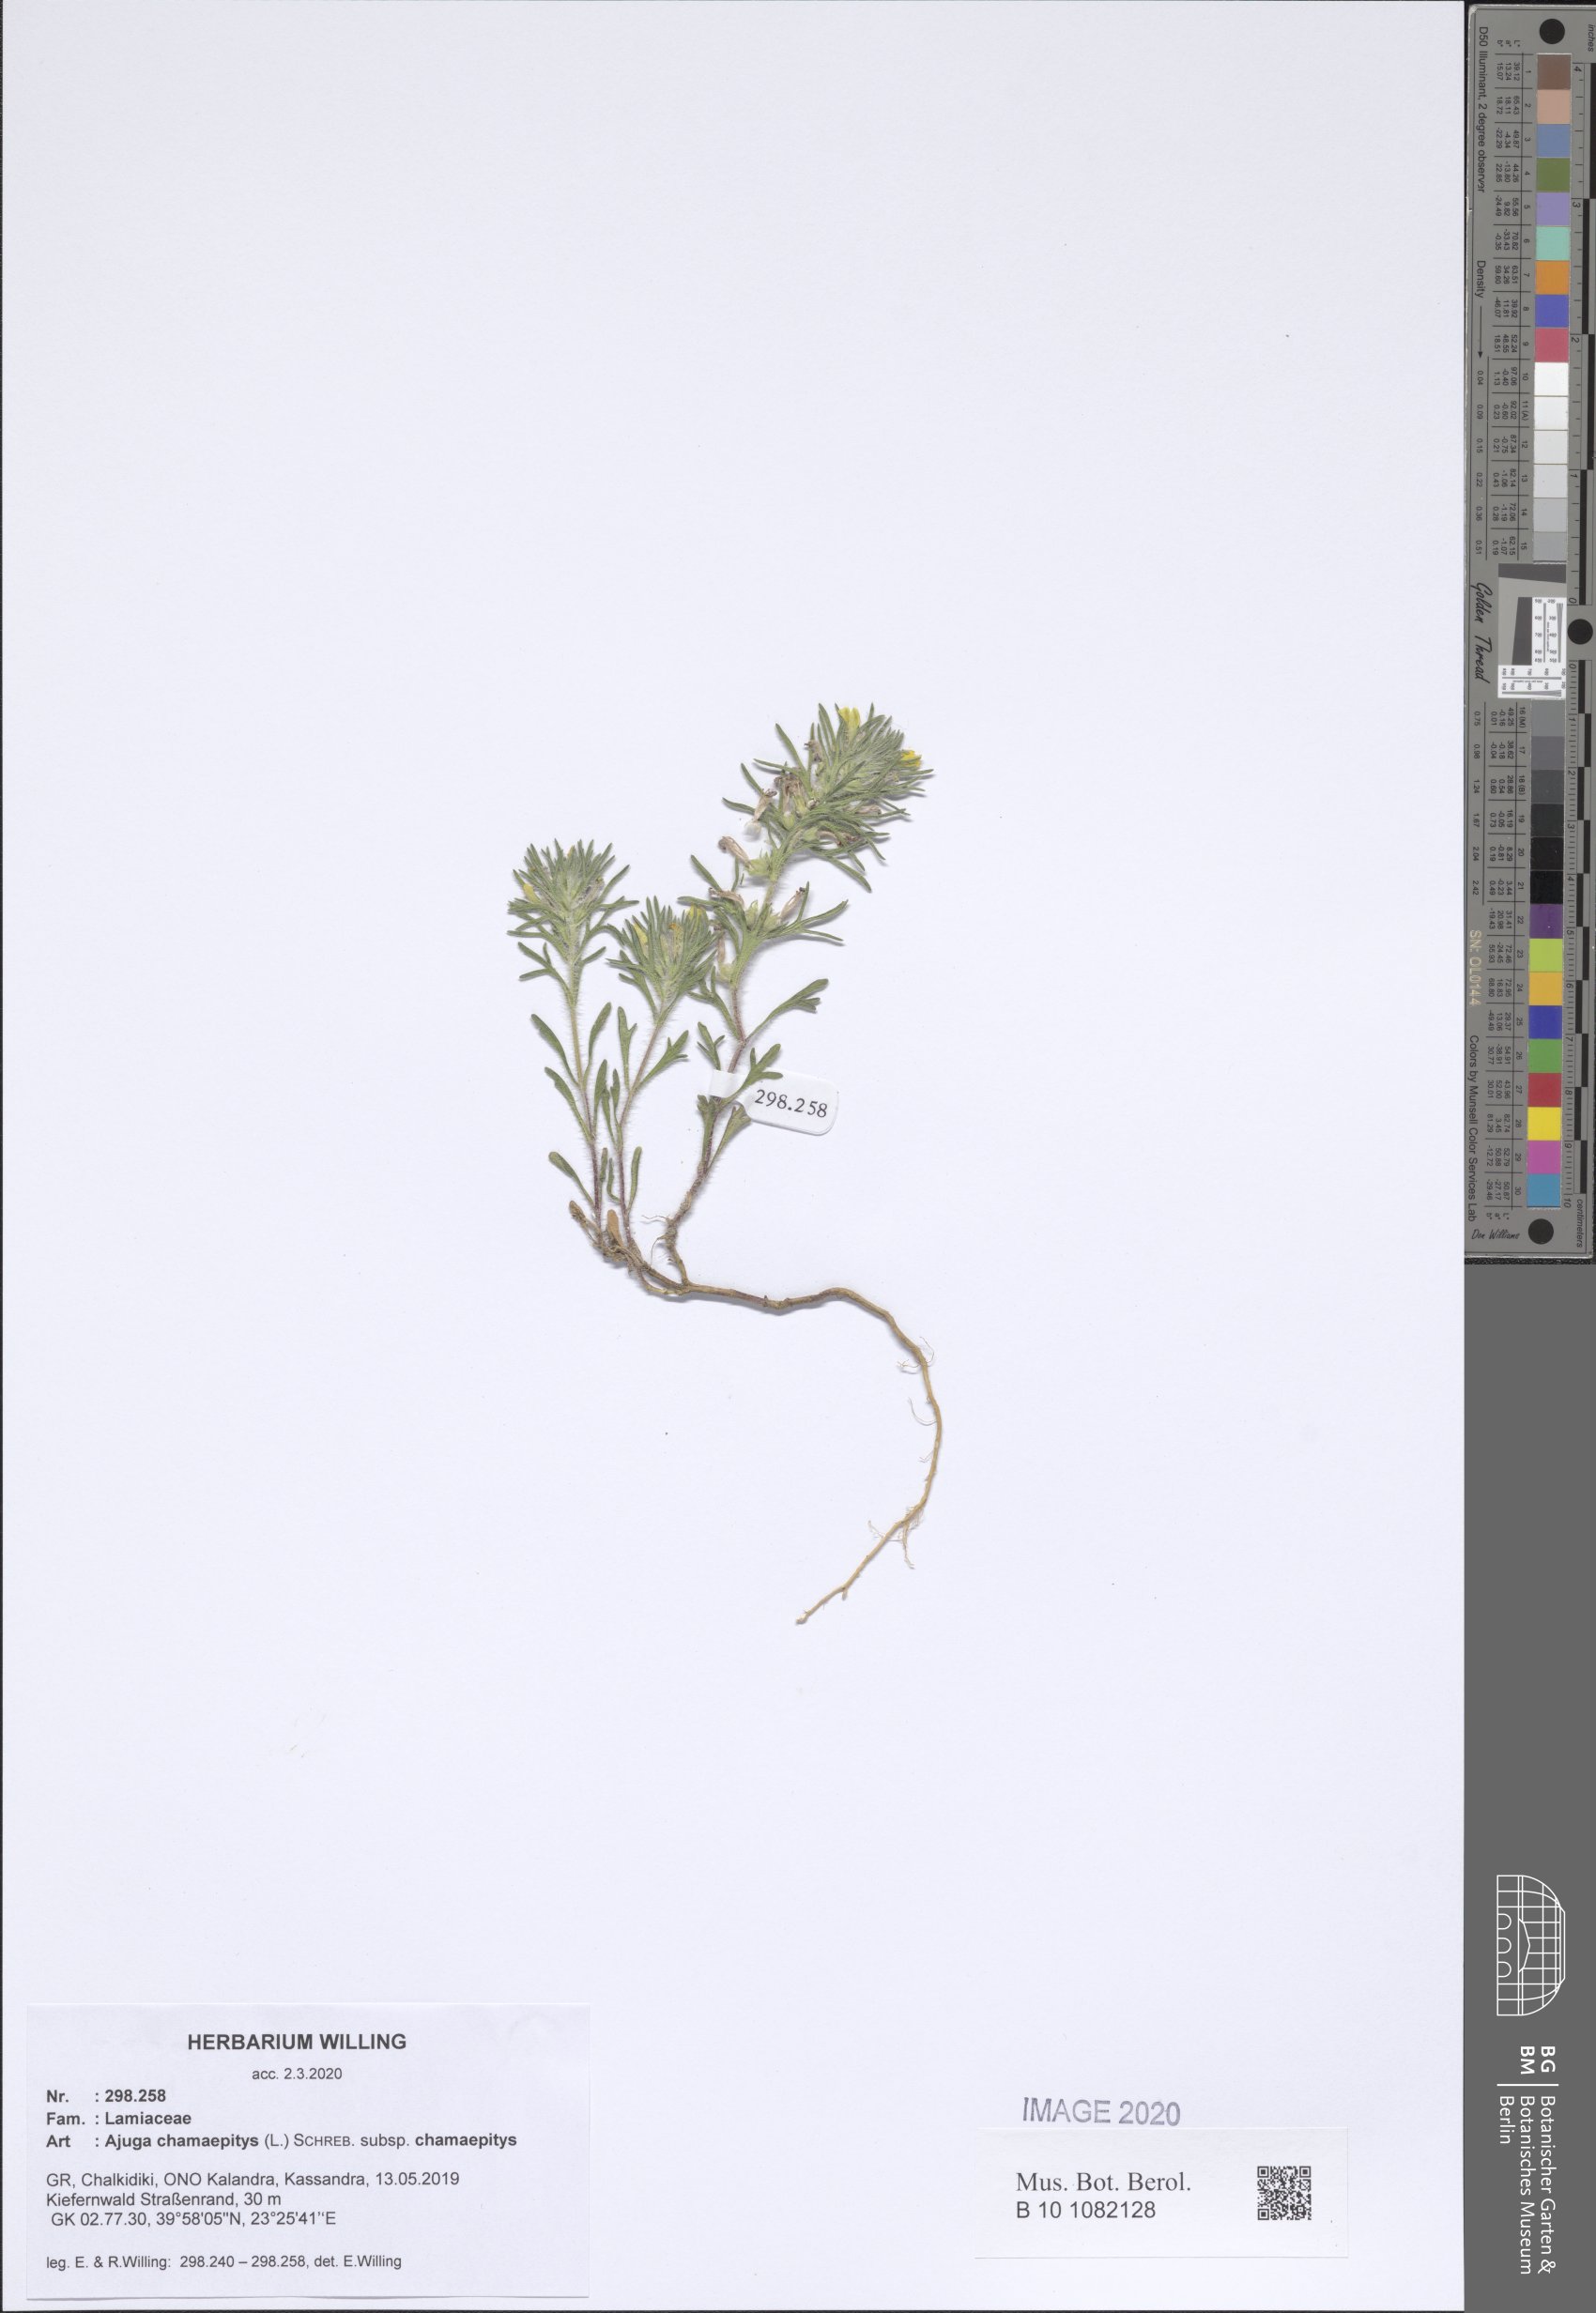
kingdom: Plantae
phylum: Tracheophyta
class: Magnoliopsida
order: Lamiales
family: Lamiaceae
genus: Ajuga
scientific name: Ajuga chamaepitys
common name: Ground-pine
